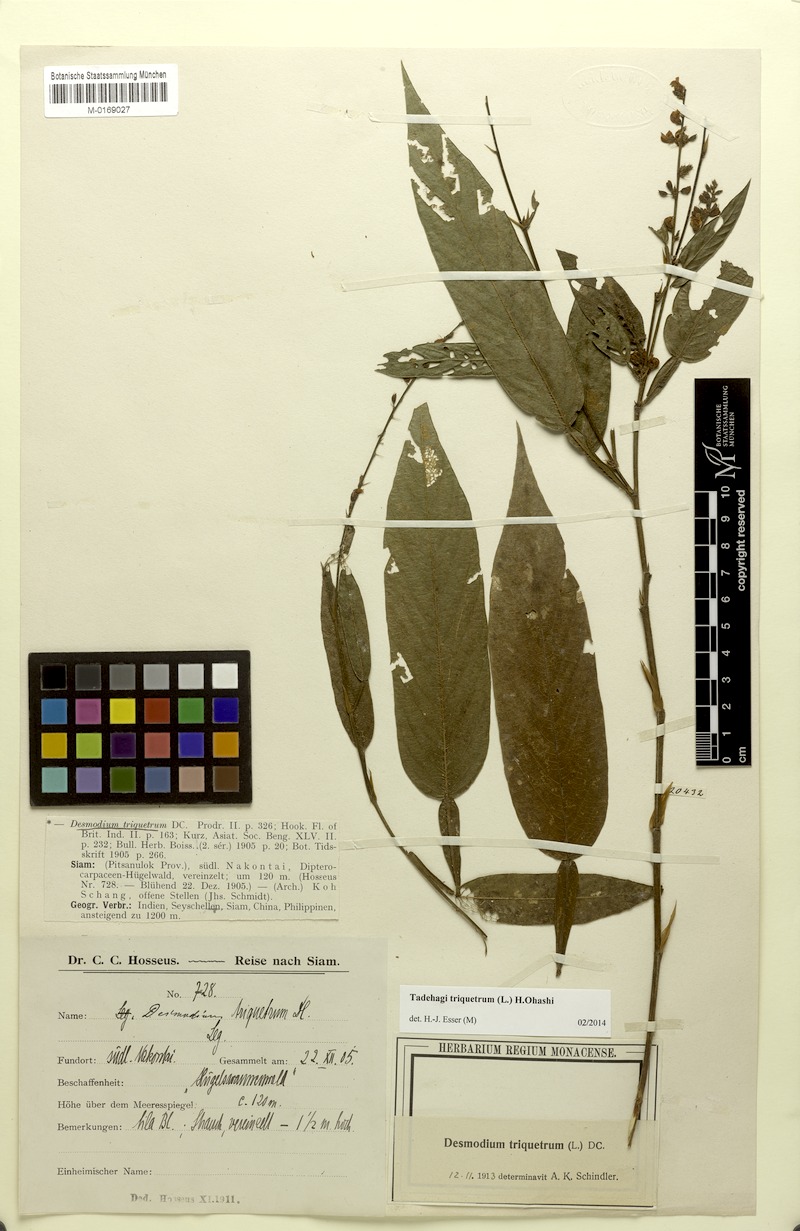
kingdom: Plantae
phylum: Tracheophyta
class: Magnoliopsida
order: Fabales
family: Fabaceae
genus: Tadehagi
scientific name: Tadehagi triquetrum
